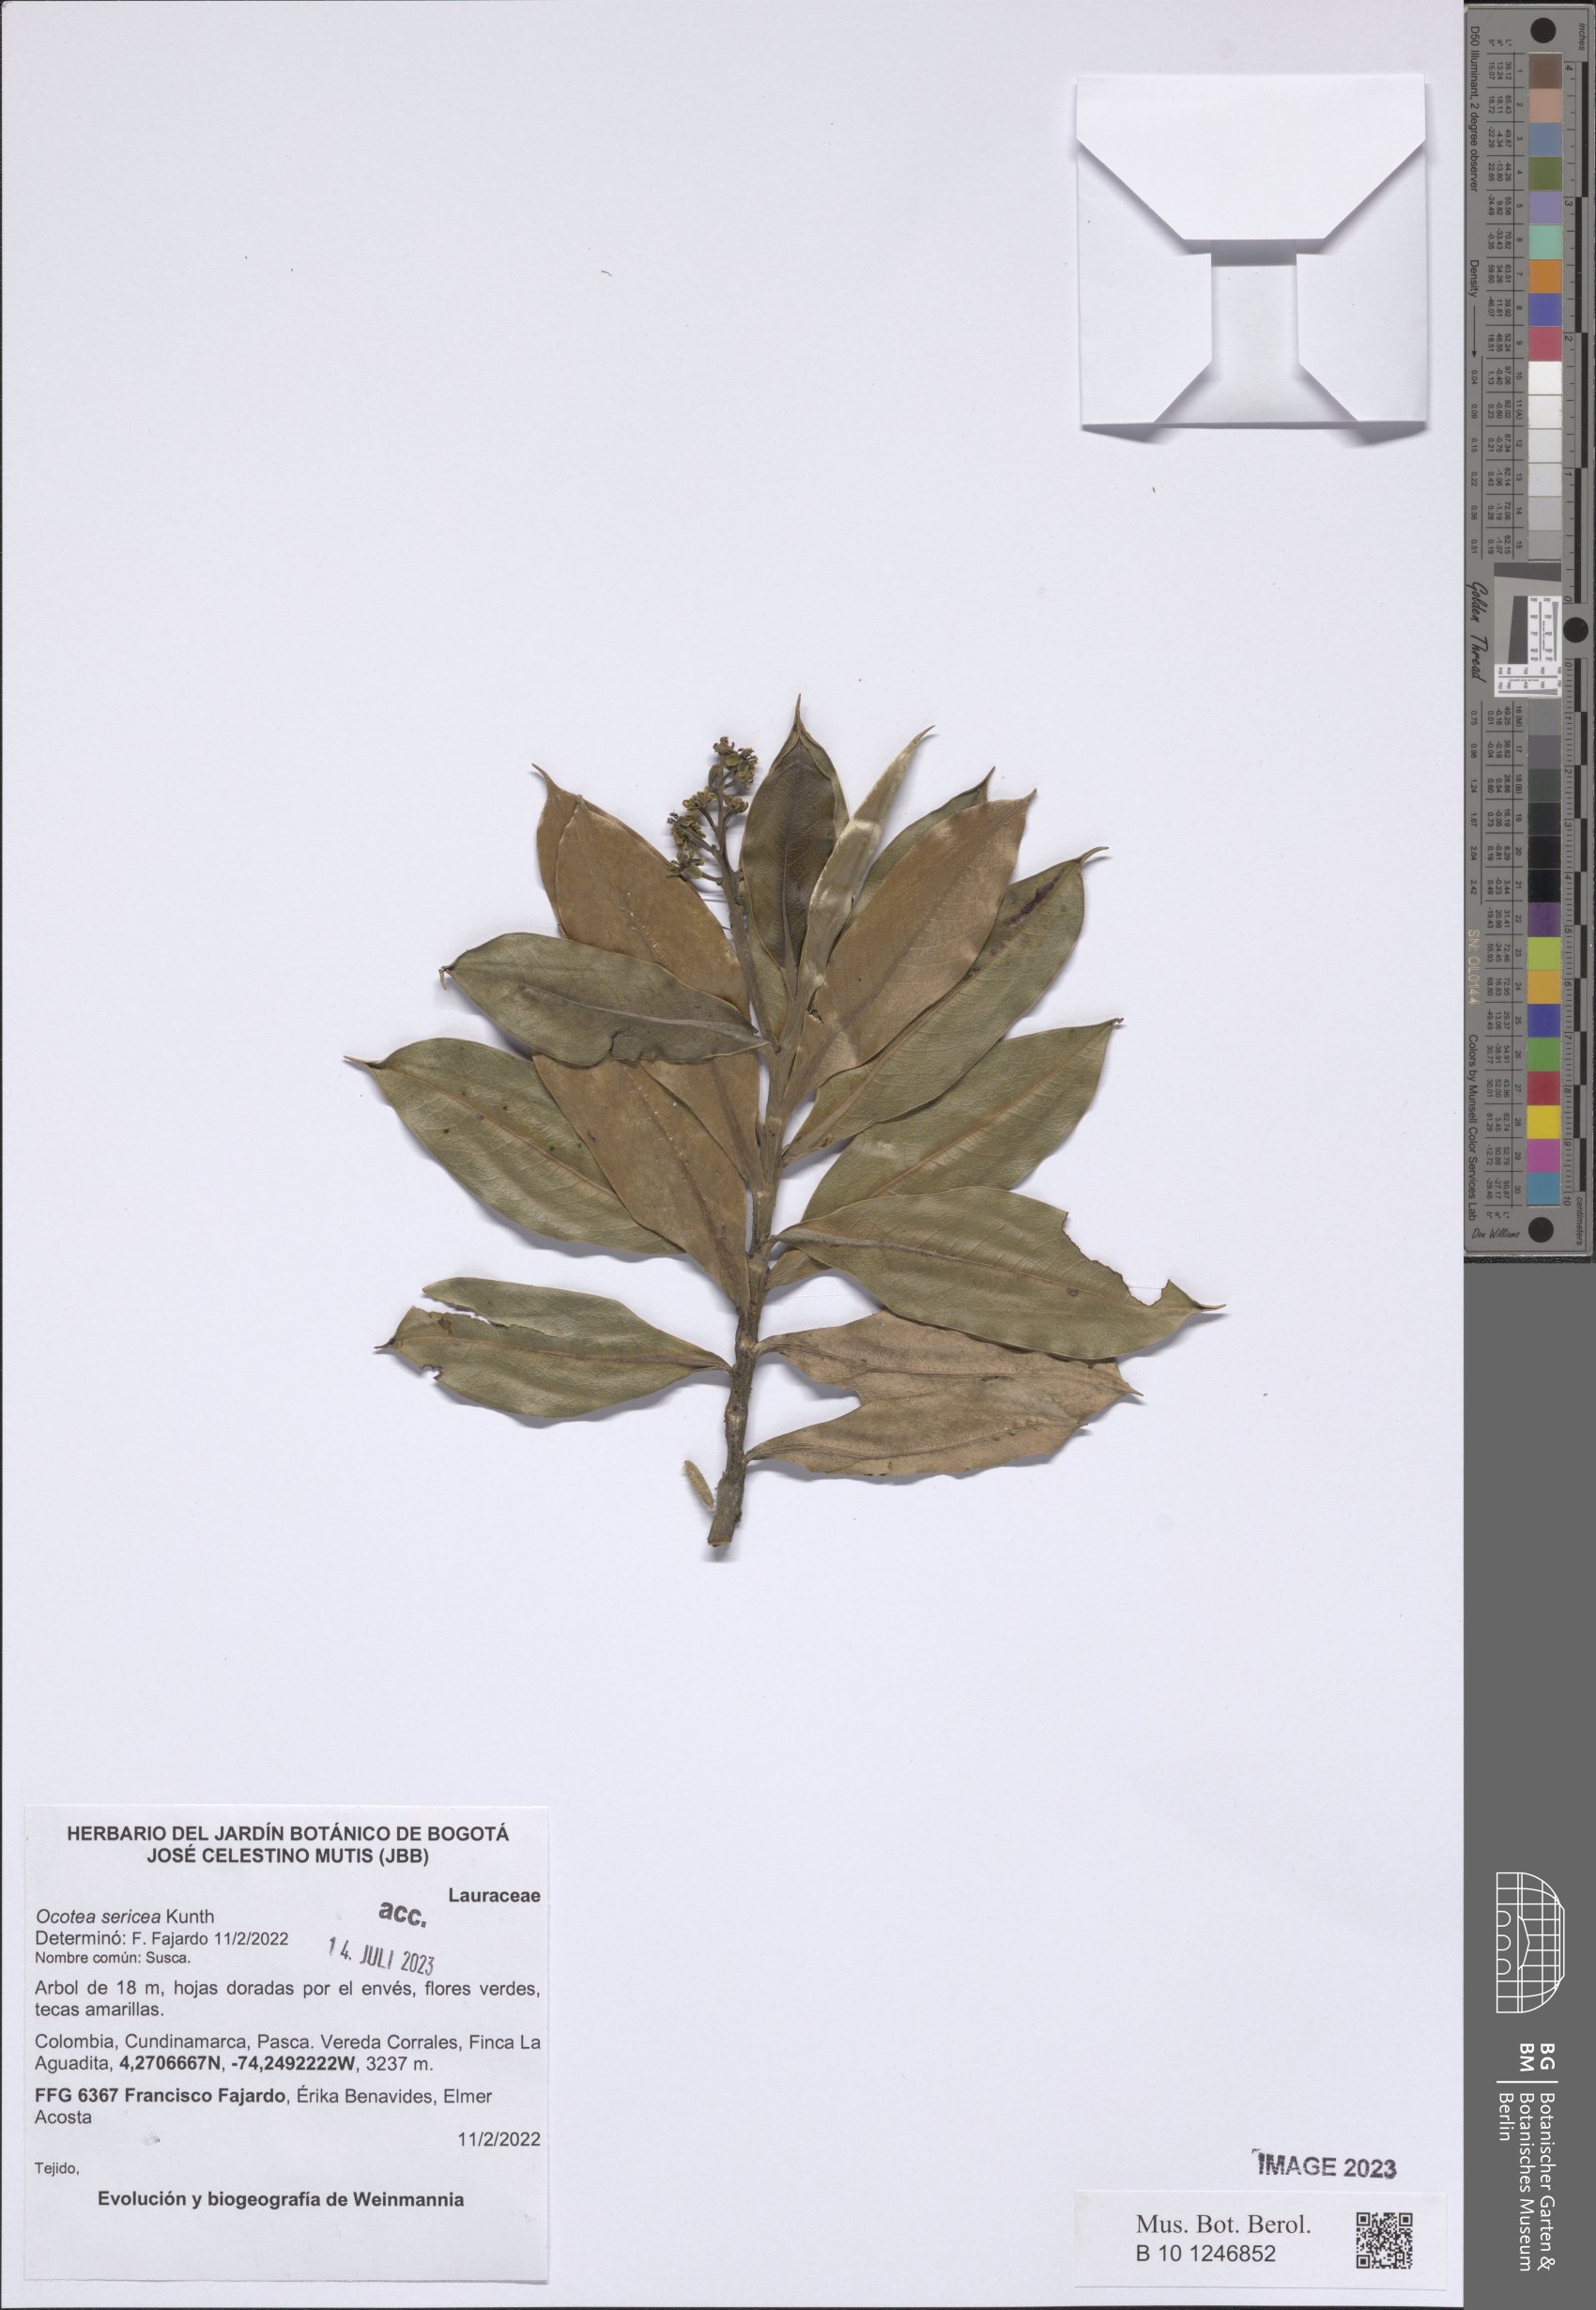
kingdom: Plantae
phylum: Tracheophyta
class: Magnoliopsida
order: Laurales
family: Lauraceae
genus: Andea
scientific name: Andea sericea
